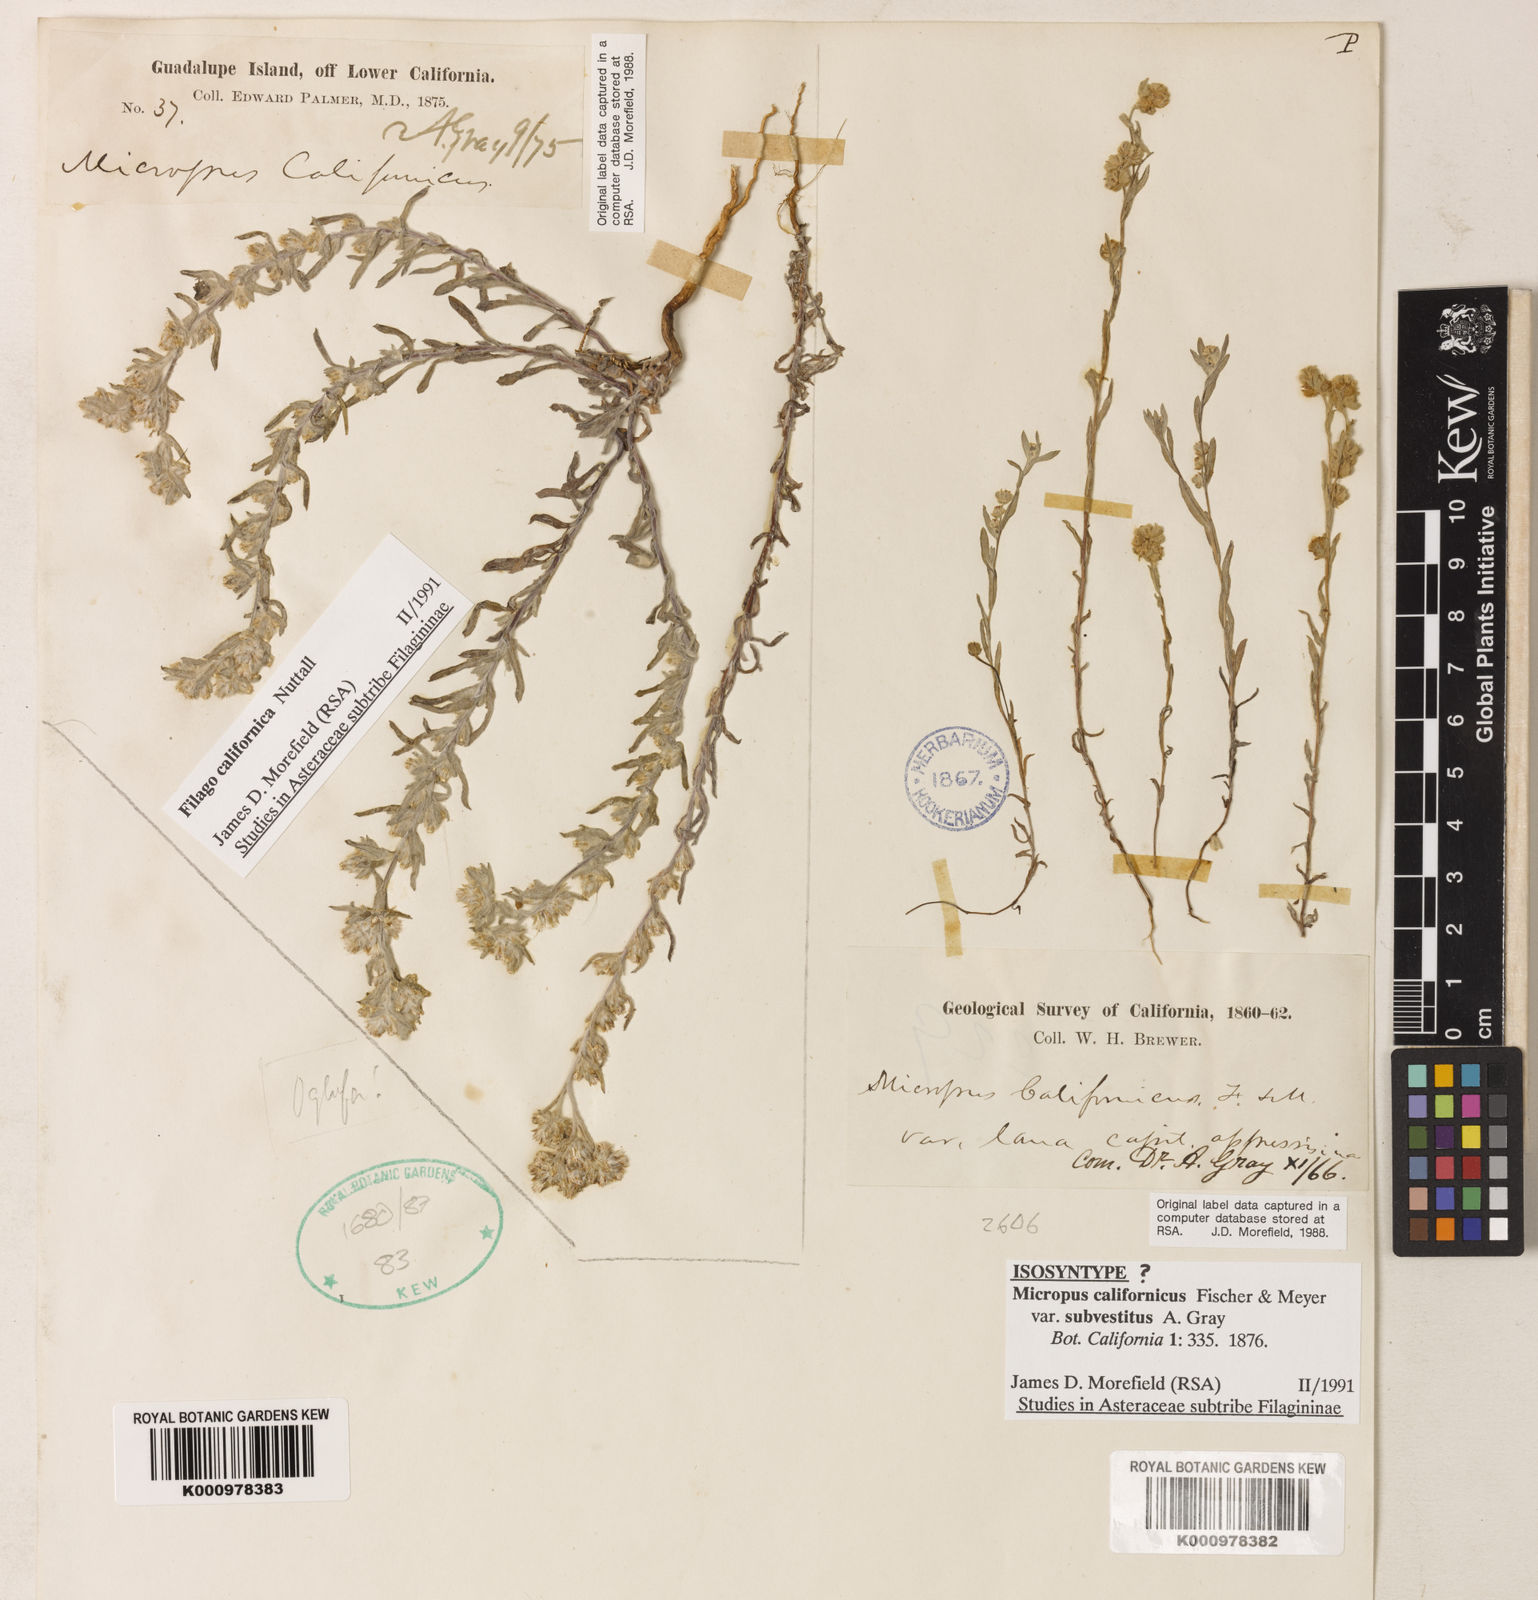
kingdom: Plantae
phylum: Tracheophyta
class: Magnoliopsida
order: Asterales
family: Asteraceae
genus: Bombycilaena
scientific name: Bombycilaena californica
